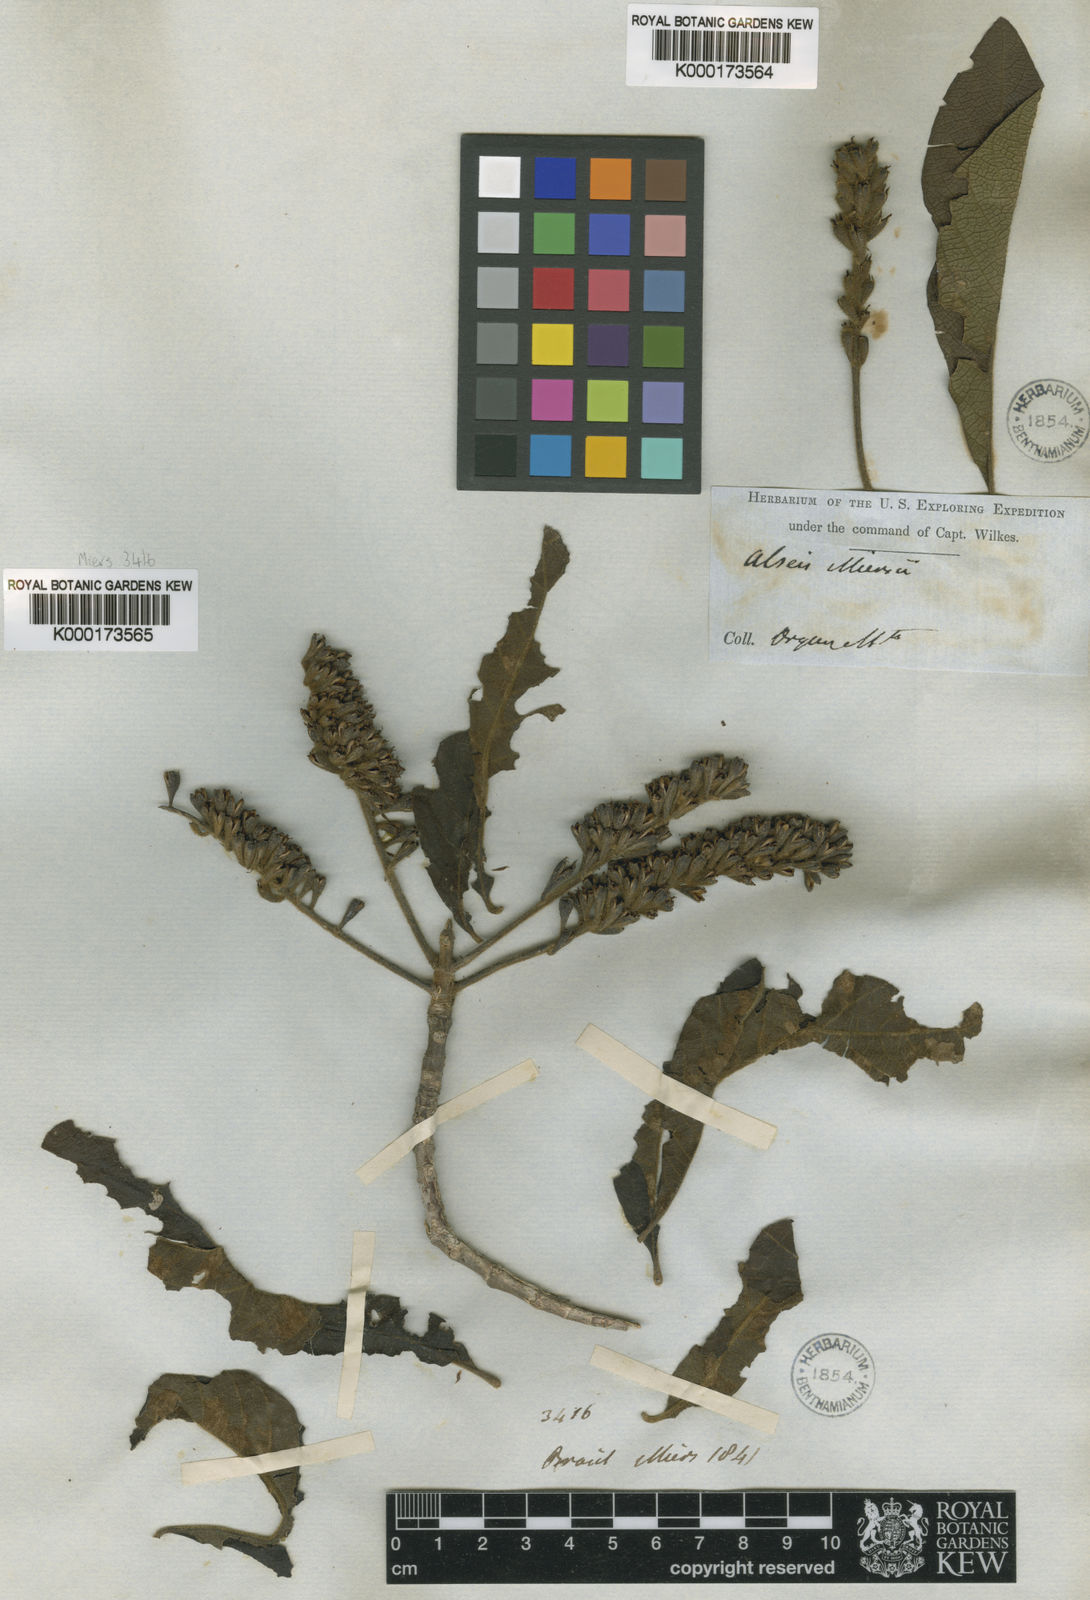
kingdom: Plantae
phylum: Tracheophyta
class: Magnoliopsida
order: Gentianales
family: Rubiaceae
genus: Alseis
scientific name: Alseis gardneri
